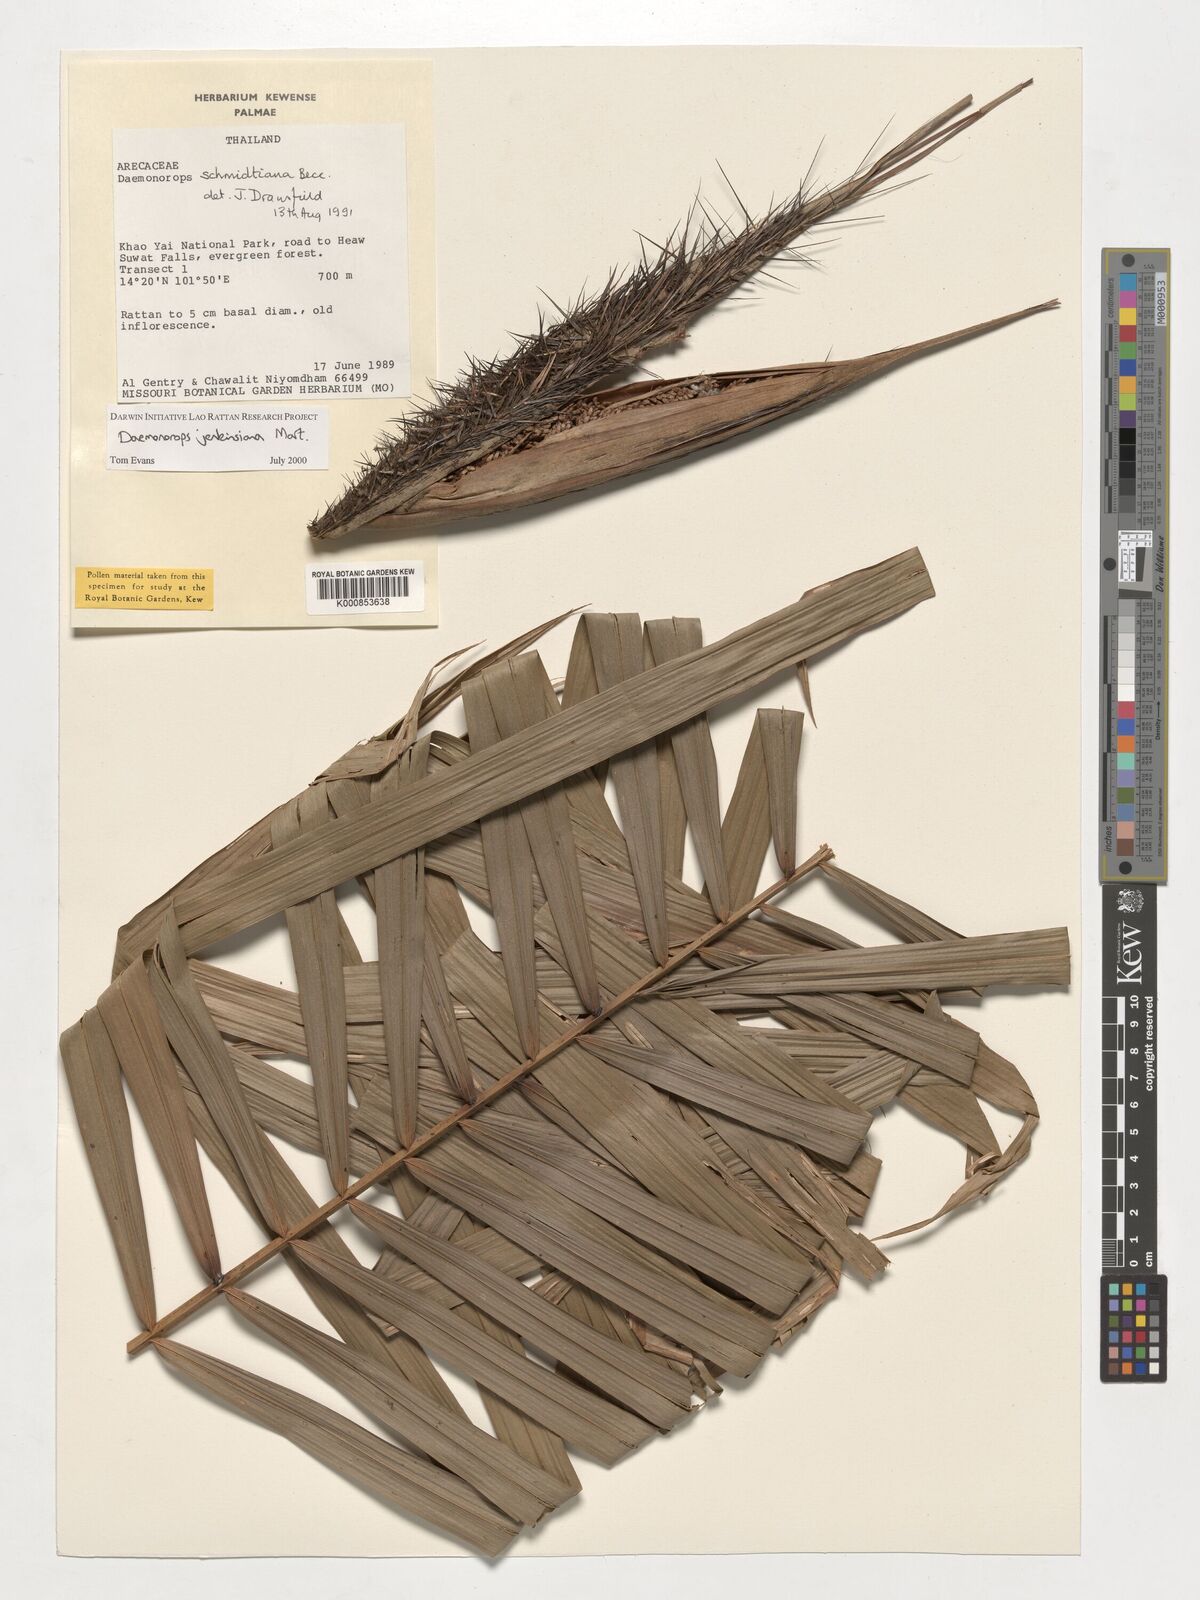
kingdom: Plantae
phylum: Tracheophyta
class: Liliopsida
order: Arecales
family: Arecaceae
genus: Calamus
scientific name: Calamus melanochaetes
